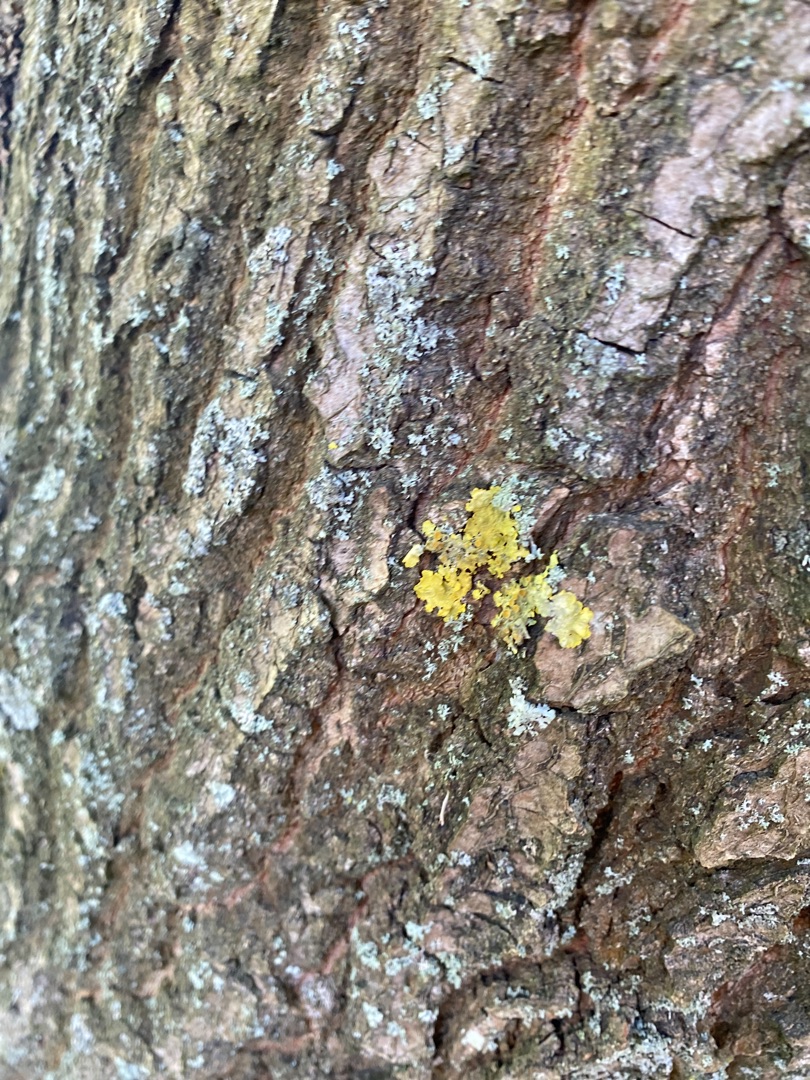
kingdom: Fungi
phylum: Ascomycota
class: Lecanoromycetes
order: Teloschistales
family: Teloschistaceae
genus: Xanthoria
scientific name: Xanthoria parietina
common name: Almindelig væggelav
